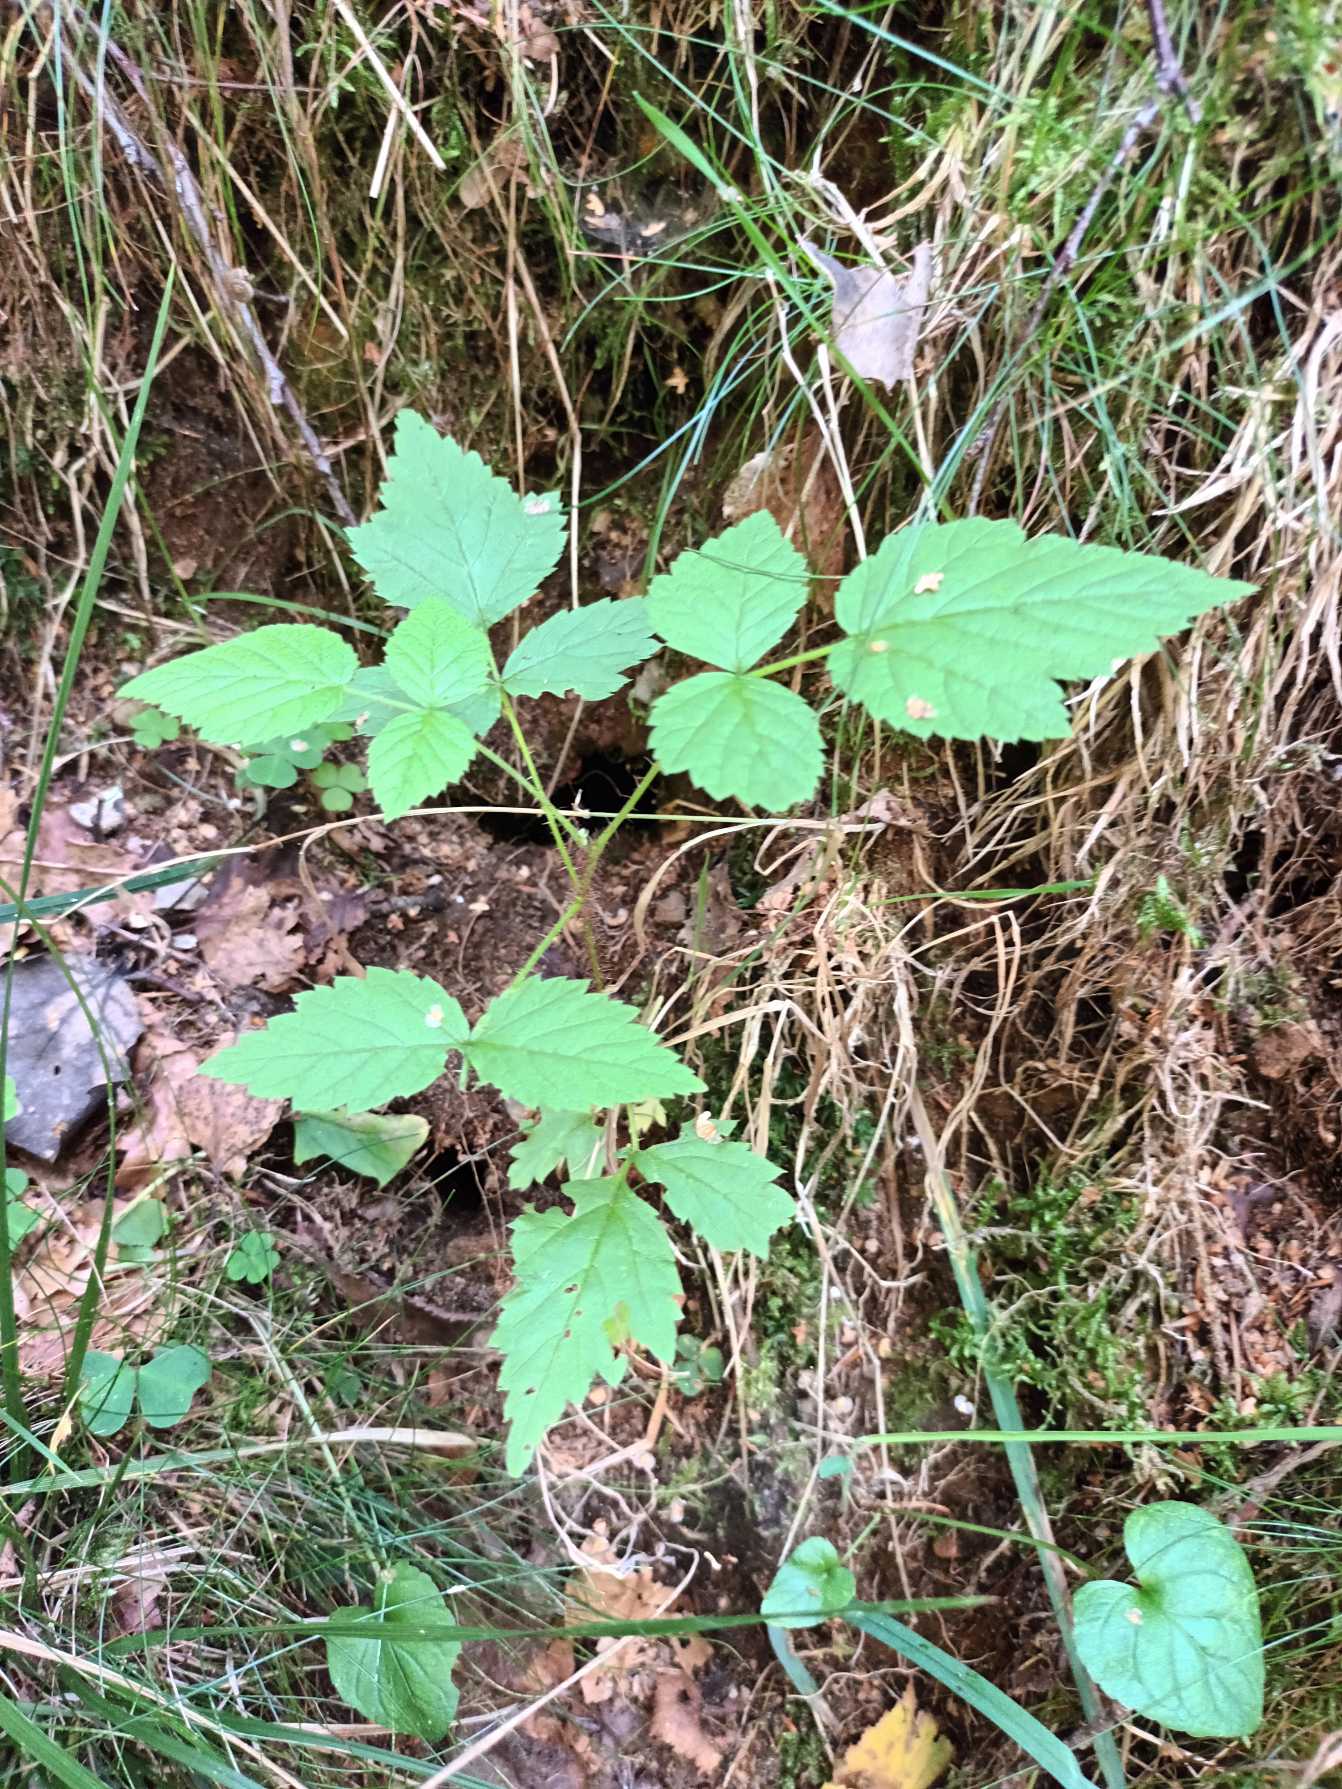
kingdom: Plantae
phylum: Tracheophyta
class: Magnoliopsida
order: Rosales
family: Rosaceae
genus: Rubus
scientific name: Rubus idaeus
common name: Hindbær
